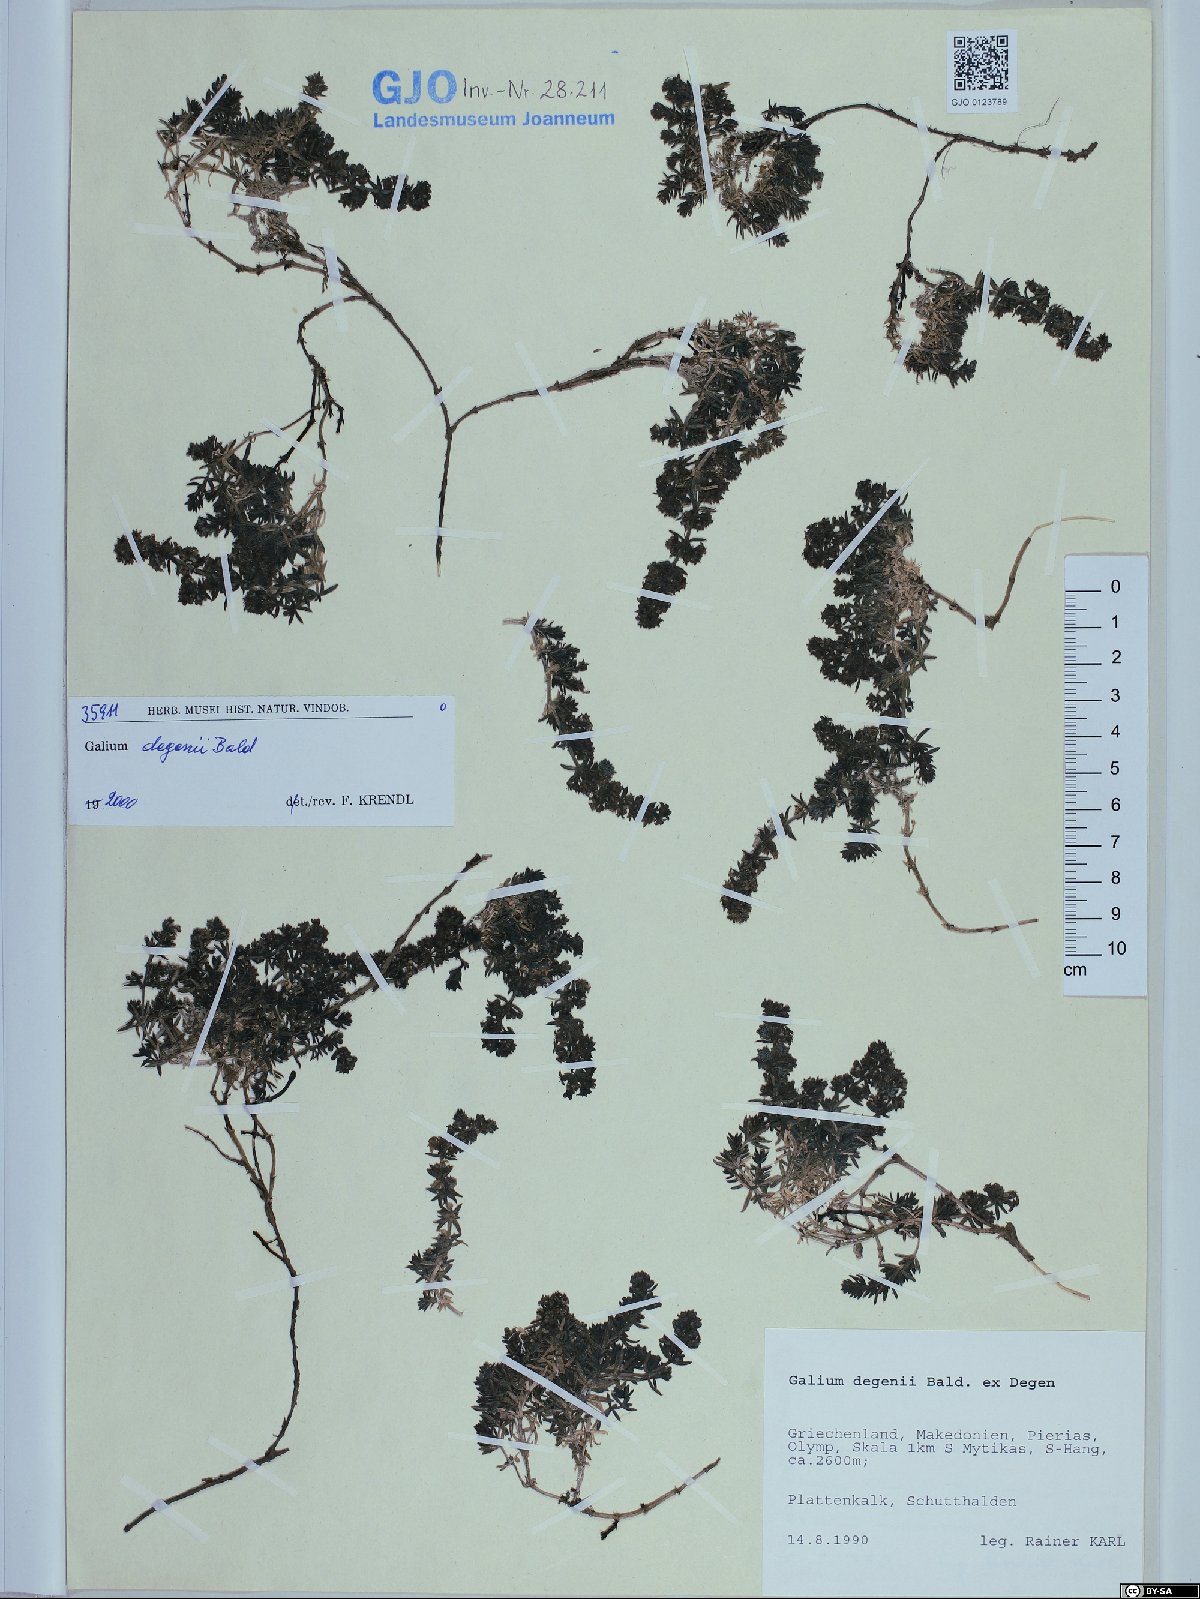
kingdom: Plantae
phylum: Tracheophyta
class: Magnoliopsida
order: Gentianales
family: Rubiaceae
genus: Galium
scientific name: Galium degenii
